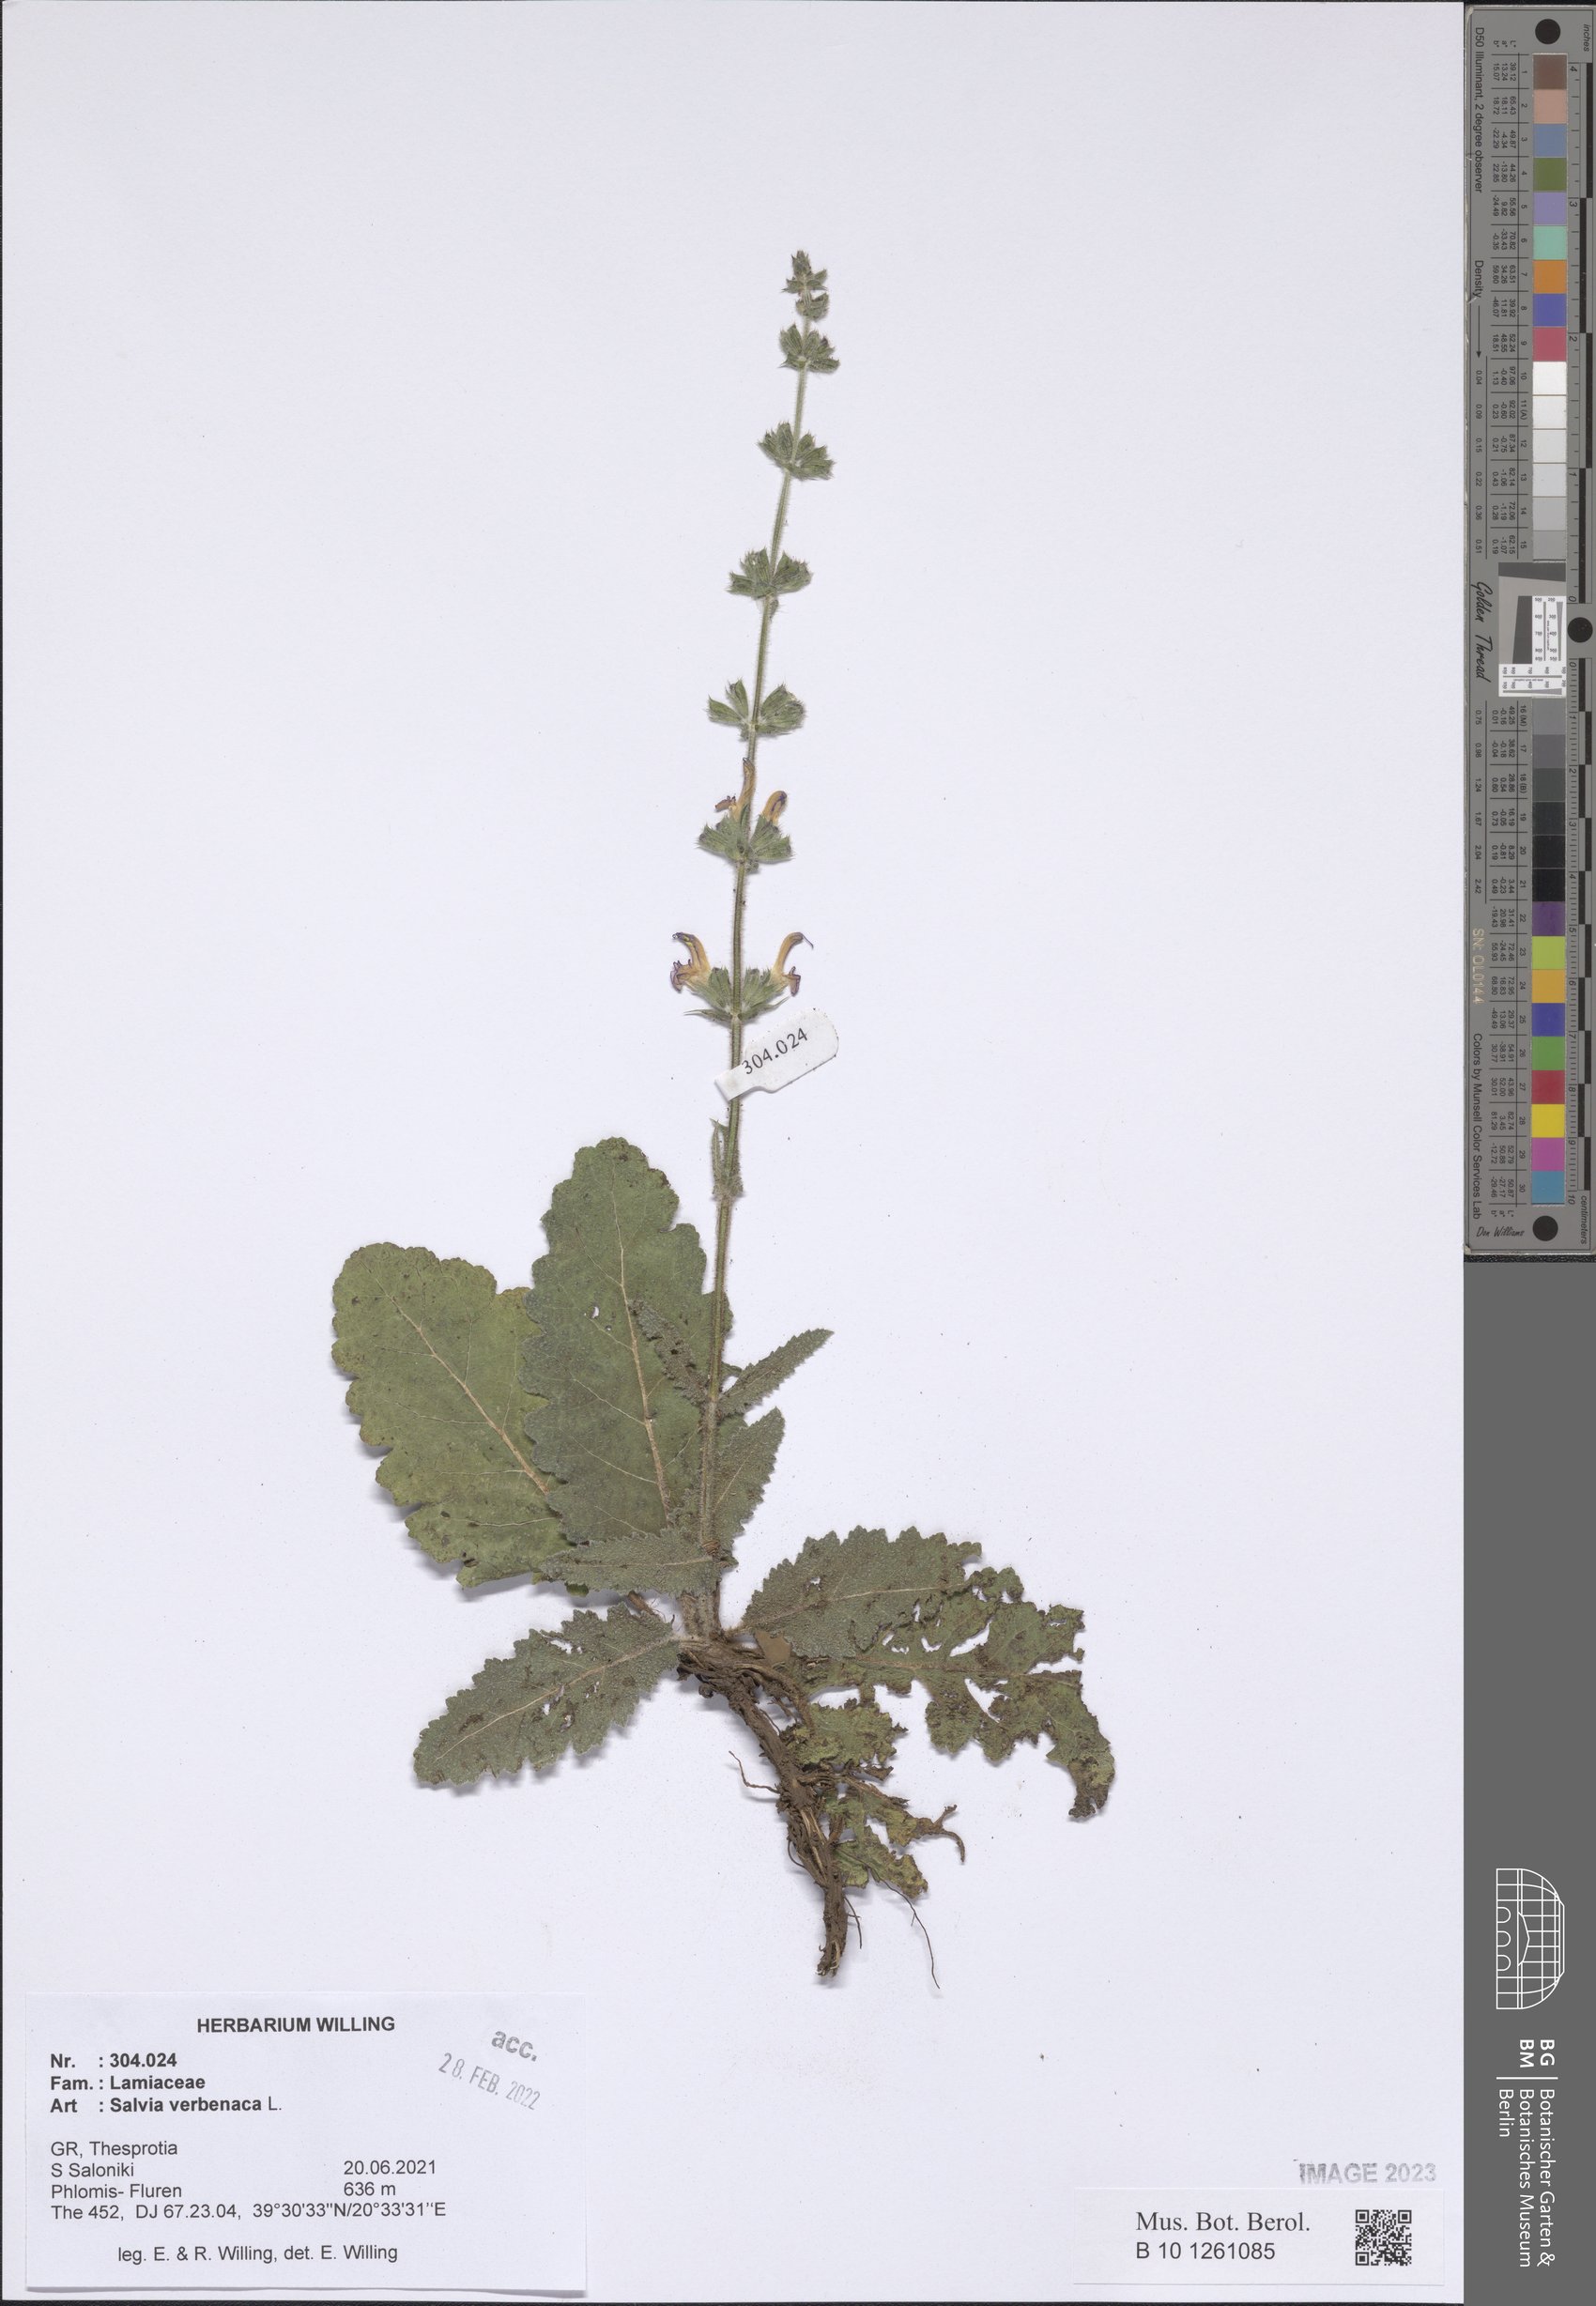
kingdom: Plantae
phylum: Tracheophyta
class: Magnoliopsida
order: Lamiales
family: Lamiaceae
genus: Salvia
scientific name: Salvia verbenaca
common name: Wild clary
